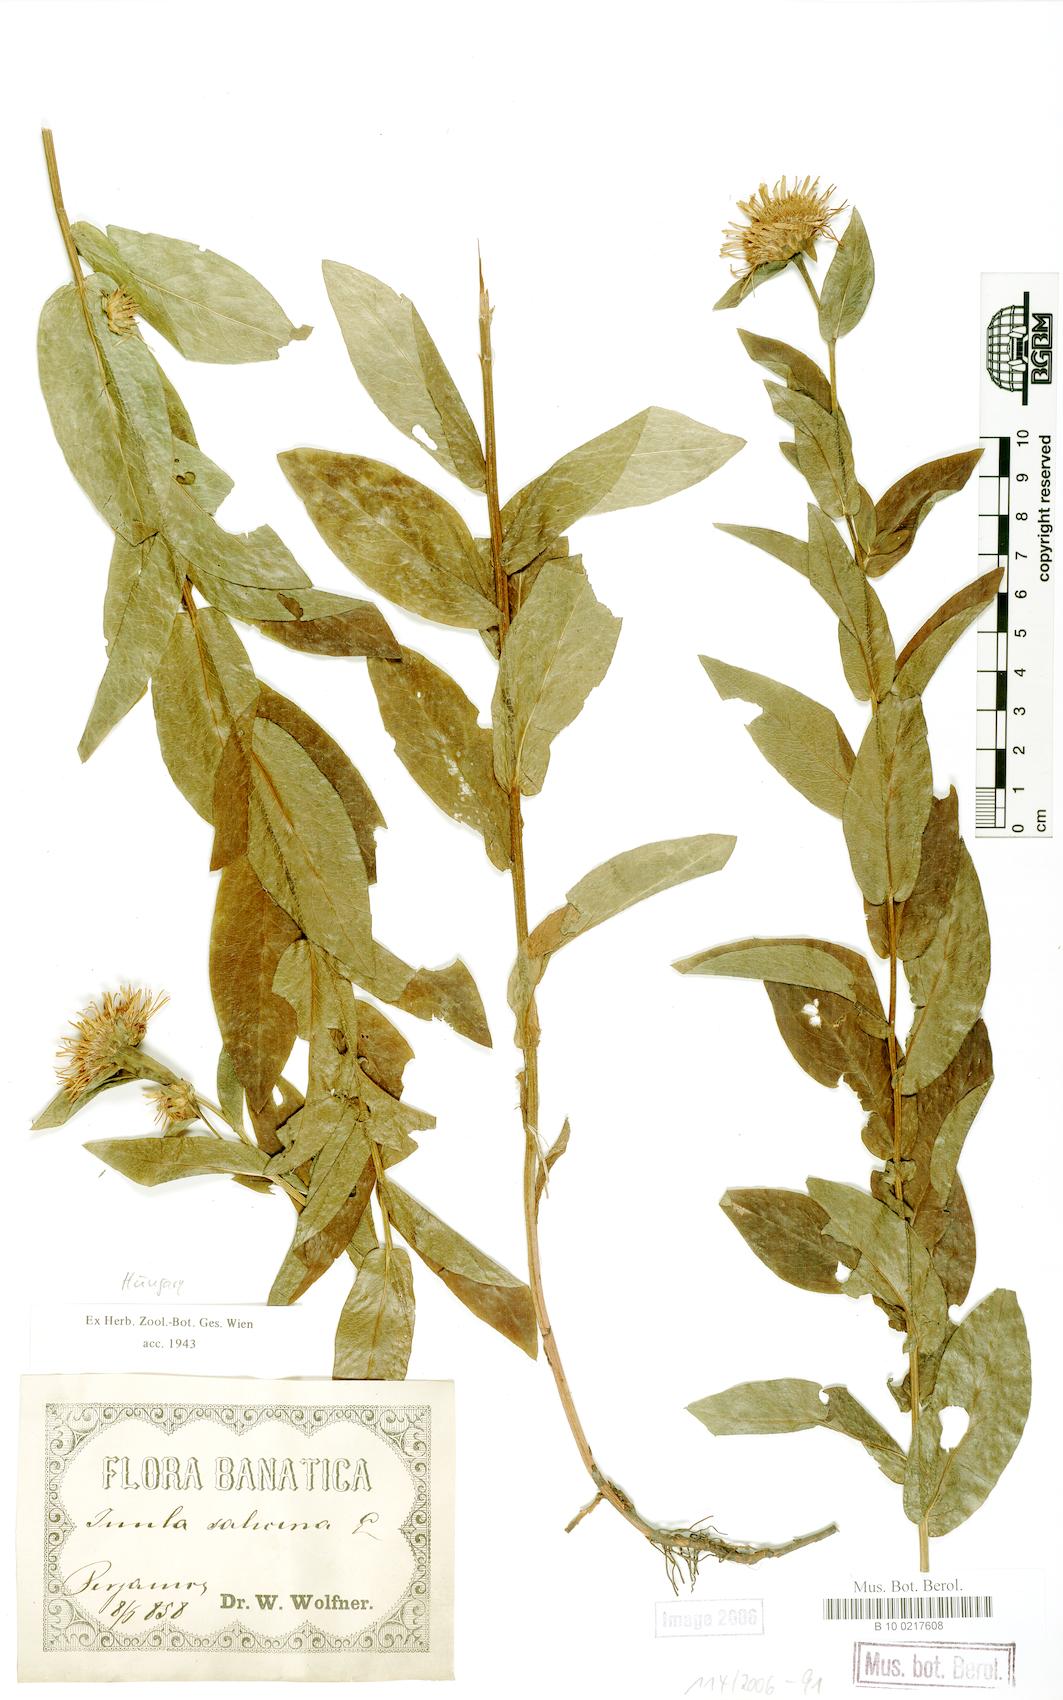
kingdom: Plantae
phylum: Tracheophyta
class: Magnoliopsida
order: Asterales
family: Asteraceae
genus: Pentanema
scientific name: Pentanema salicinum
